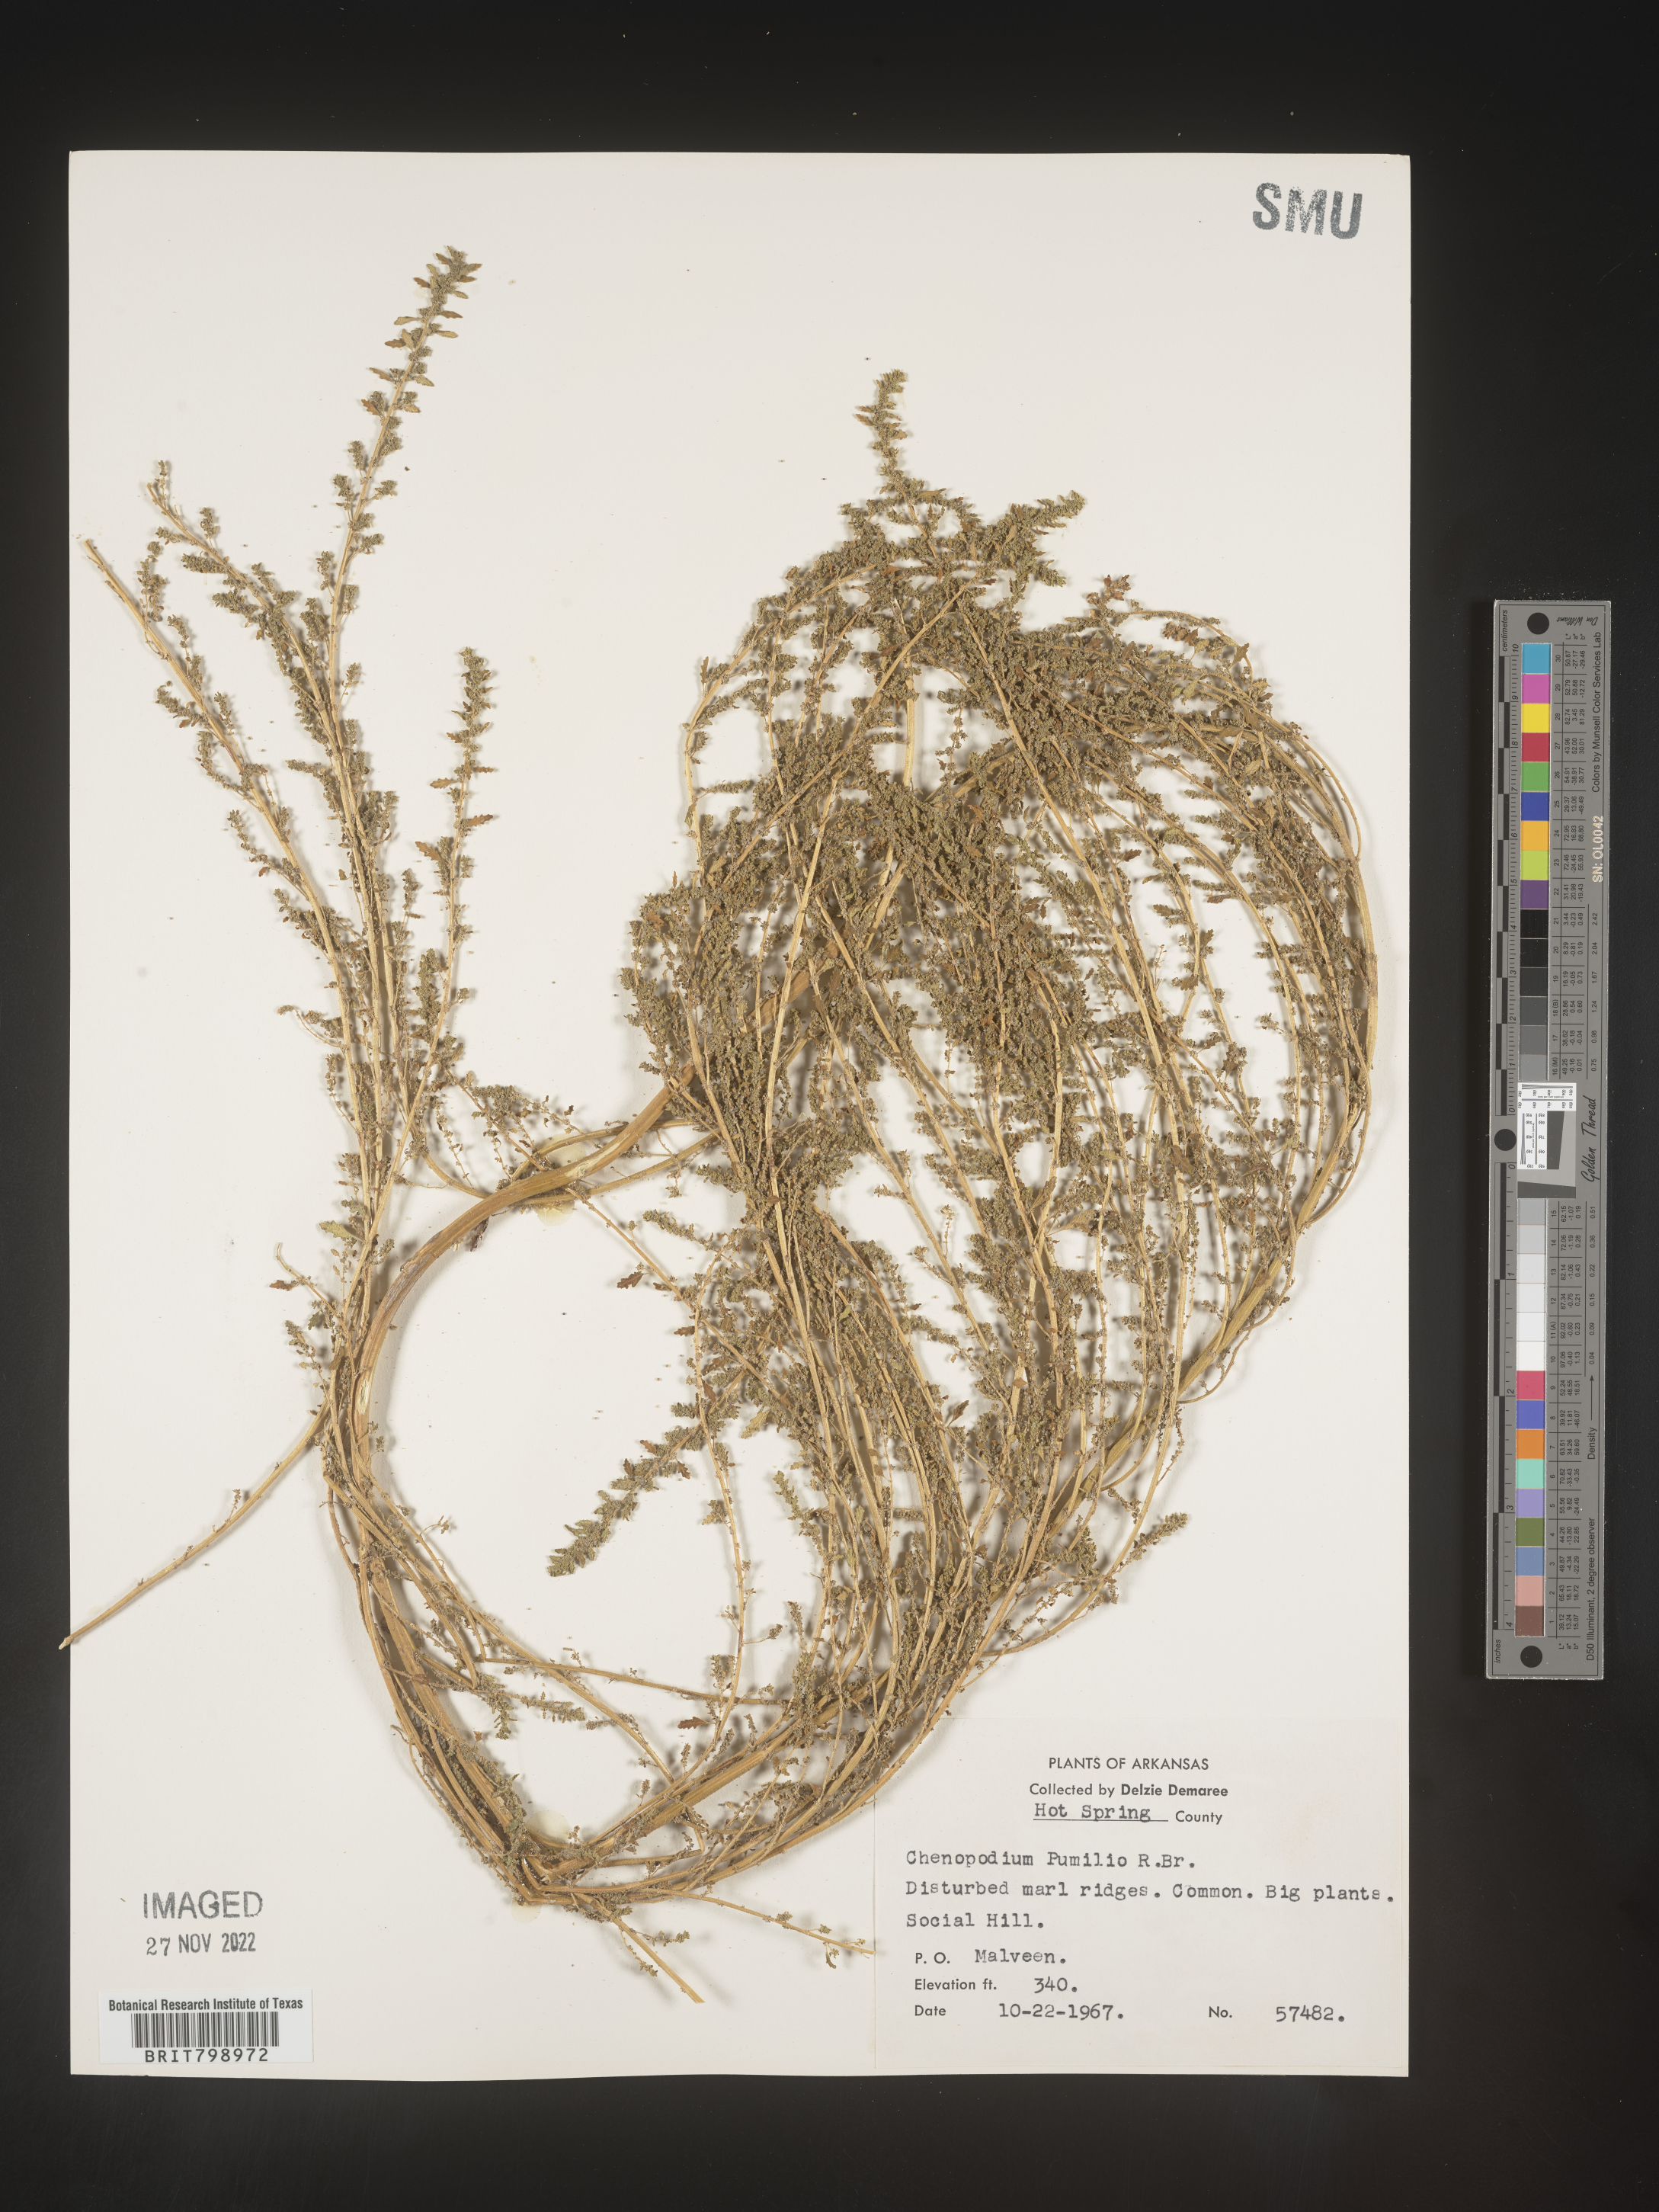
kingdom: Plantae
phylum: Tracheophyta
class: Magnoliopsida
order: Caryophyllales
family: Amaranthaceae
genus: Dysphania
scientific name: Dysphania pumilio
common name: Clammy goosefoot
